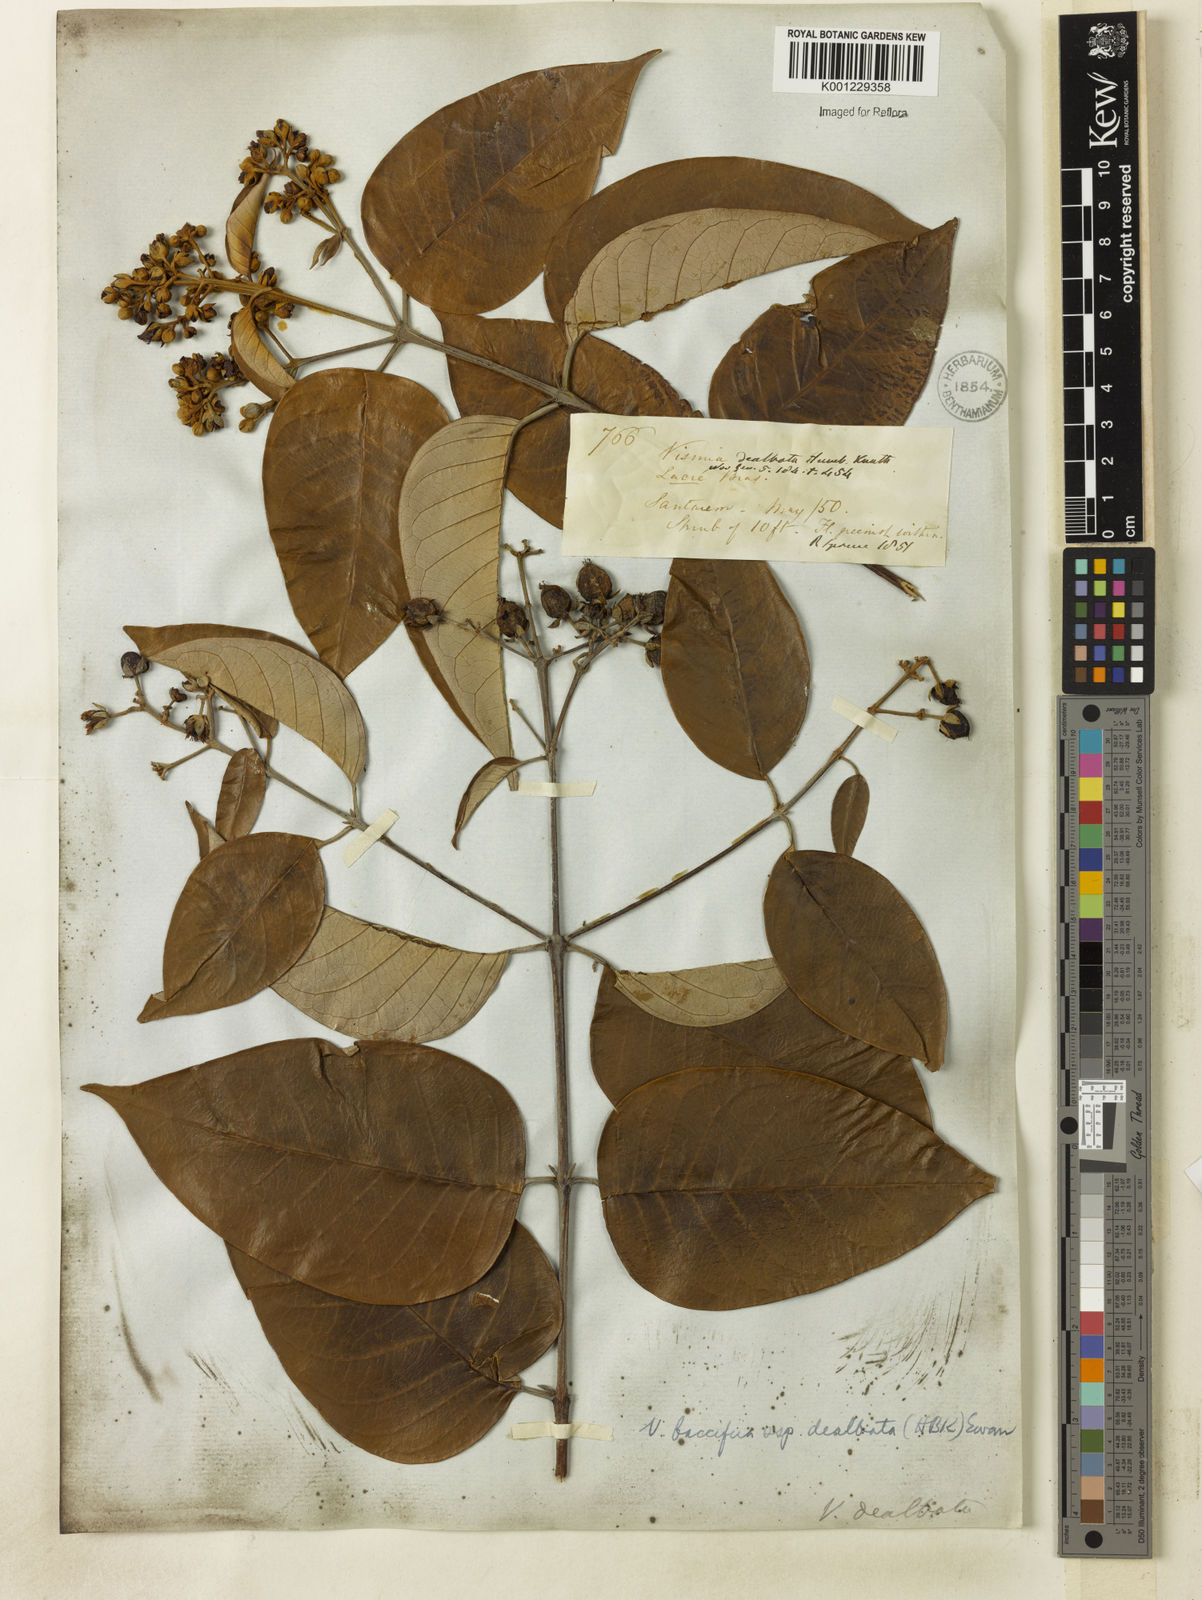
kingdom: Plantae
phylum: Tracheophyta
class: Magnoliopsida
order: Malpighiales
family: Hypericaceae
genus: Vismia
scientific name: Vismia gracilis
